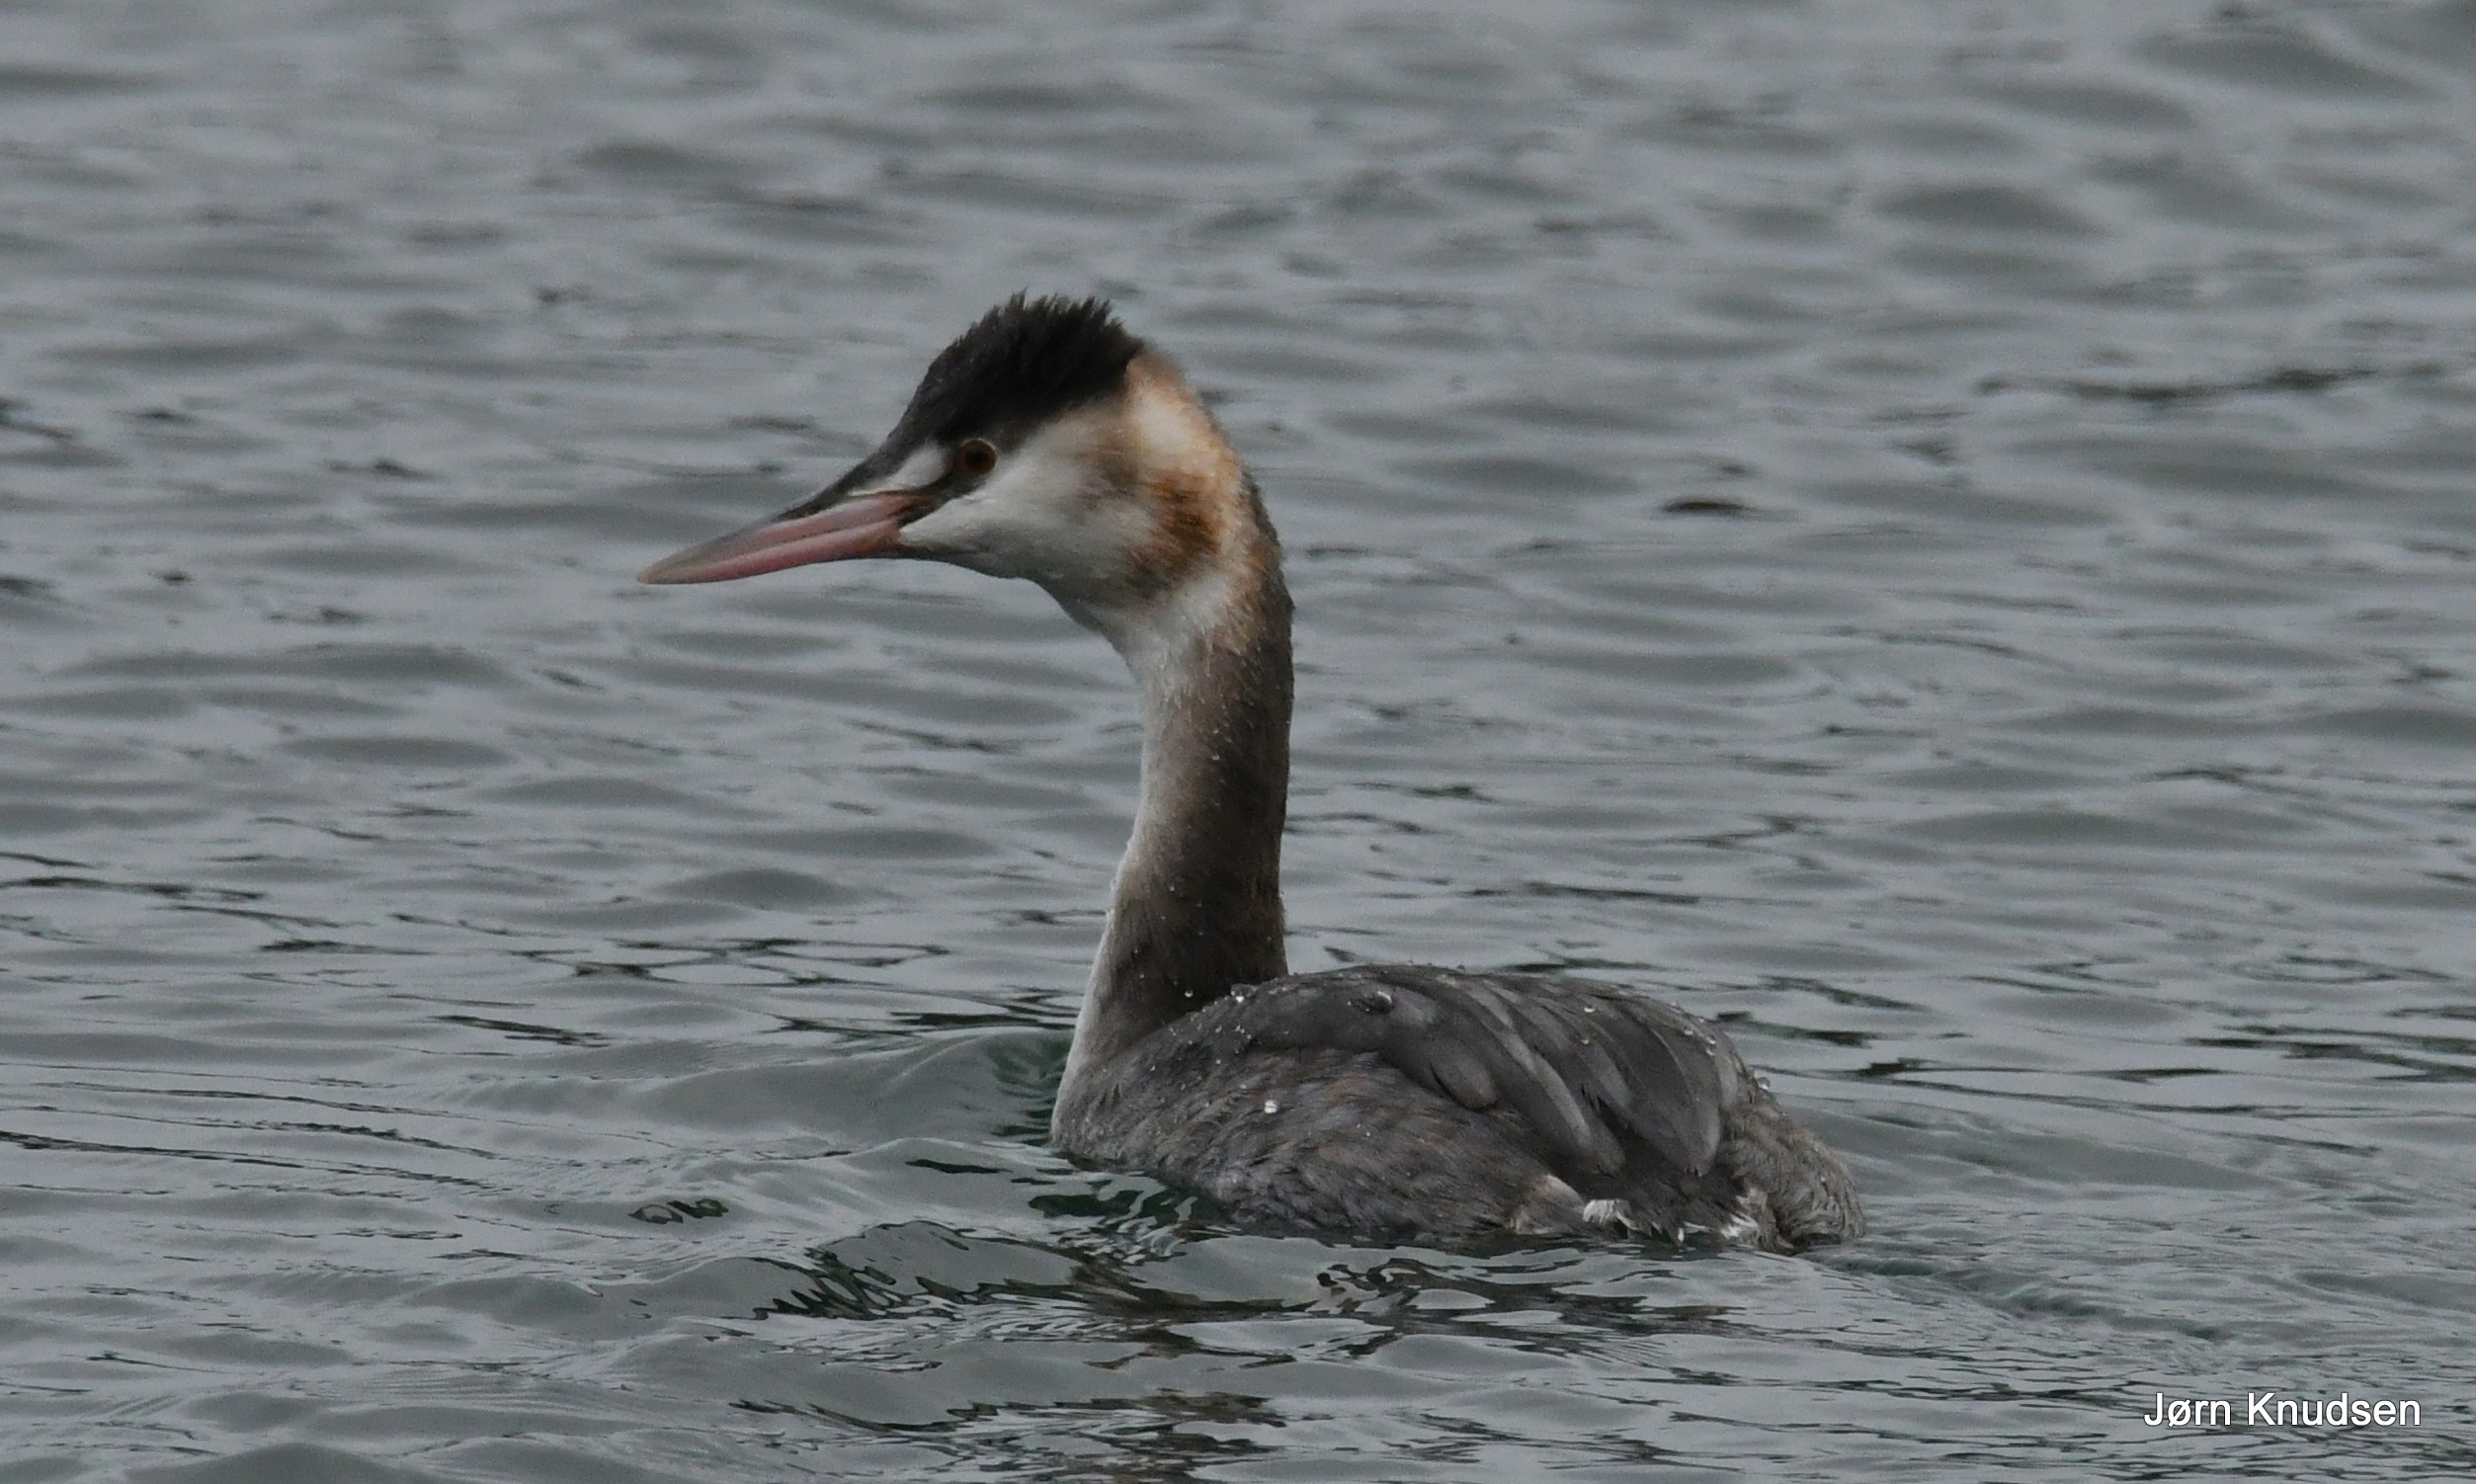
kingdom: Animalia
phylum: Chordata
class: Aves
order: Podicipediformes
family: Podicipedidae
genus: Podiceps
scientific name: Podiceps cristatus
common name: Toppet lappedykker
